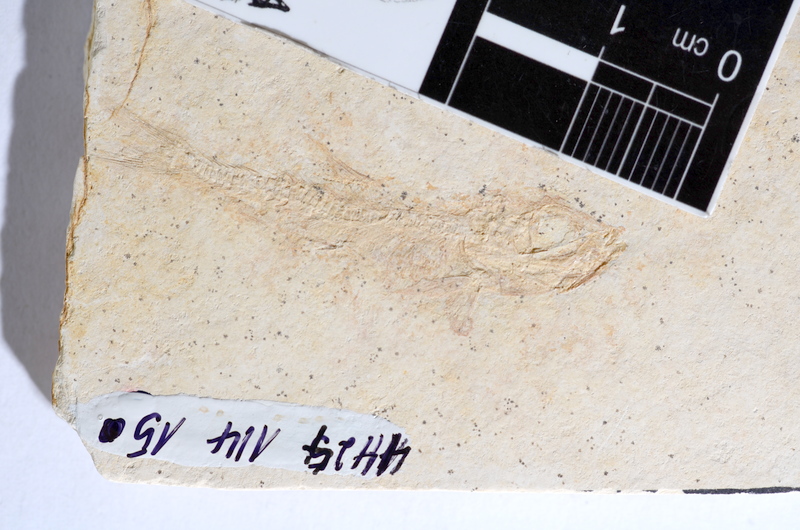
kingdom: Animalia
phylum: Chordata
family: Ascalaboidae
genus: Tharsis
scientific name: Tharsis dubius
